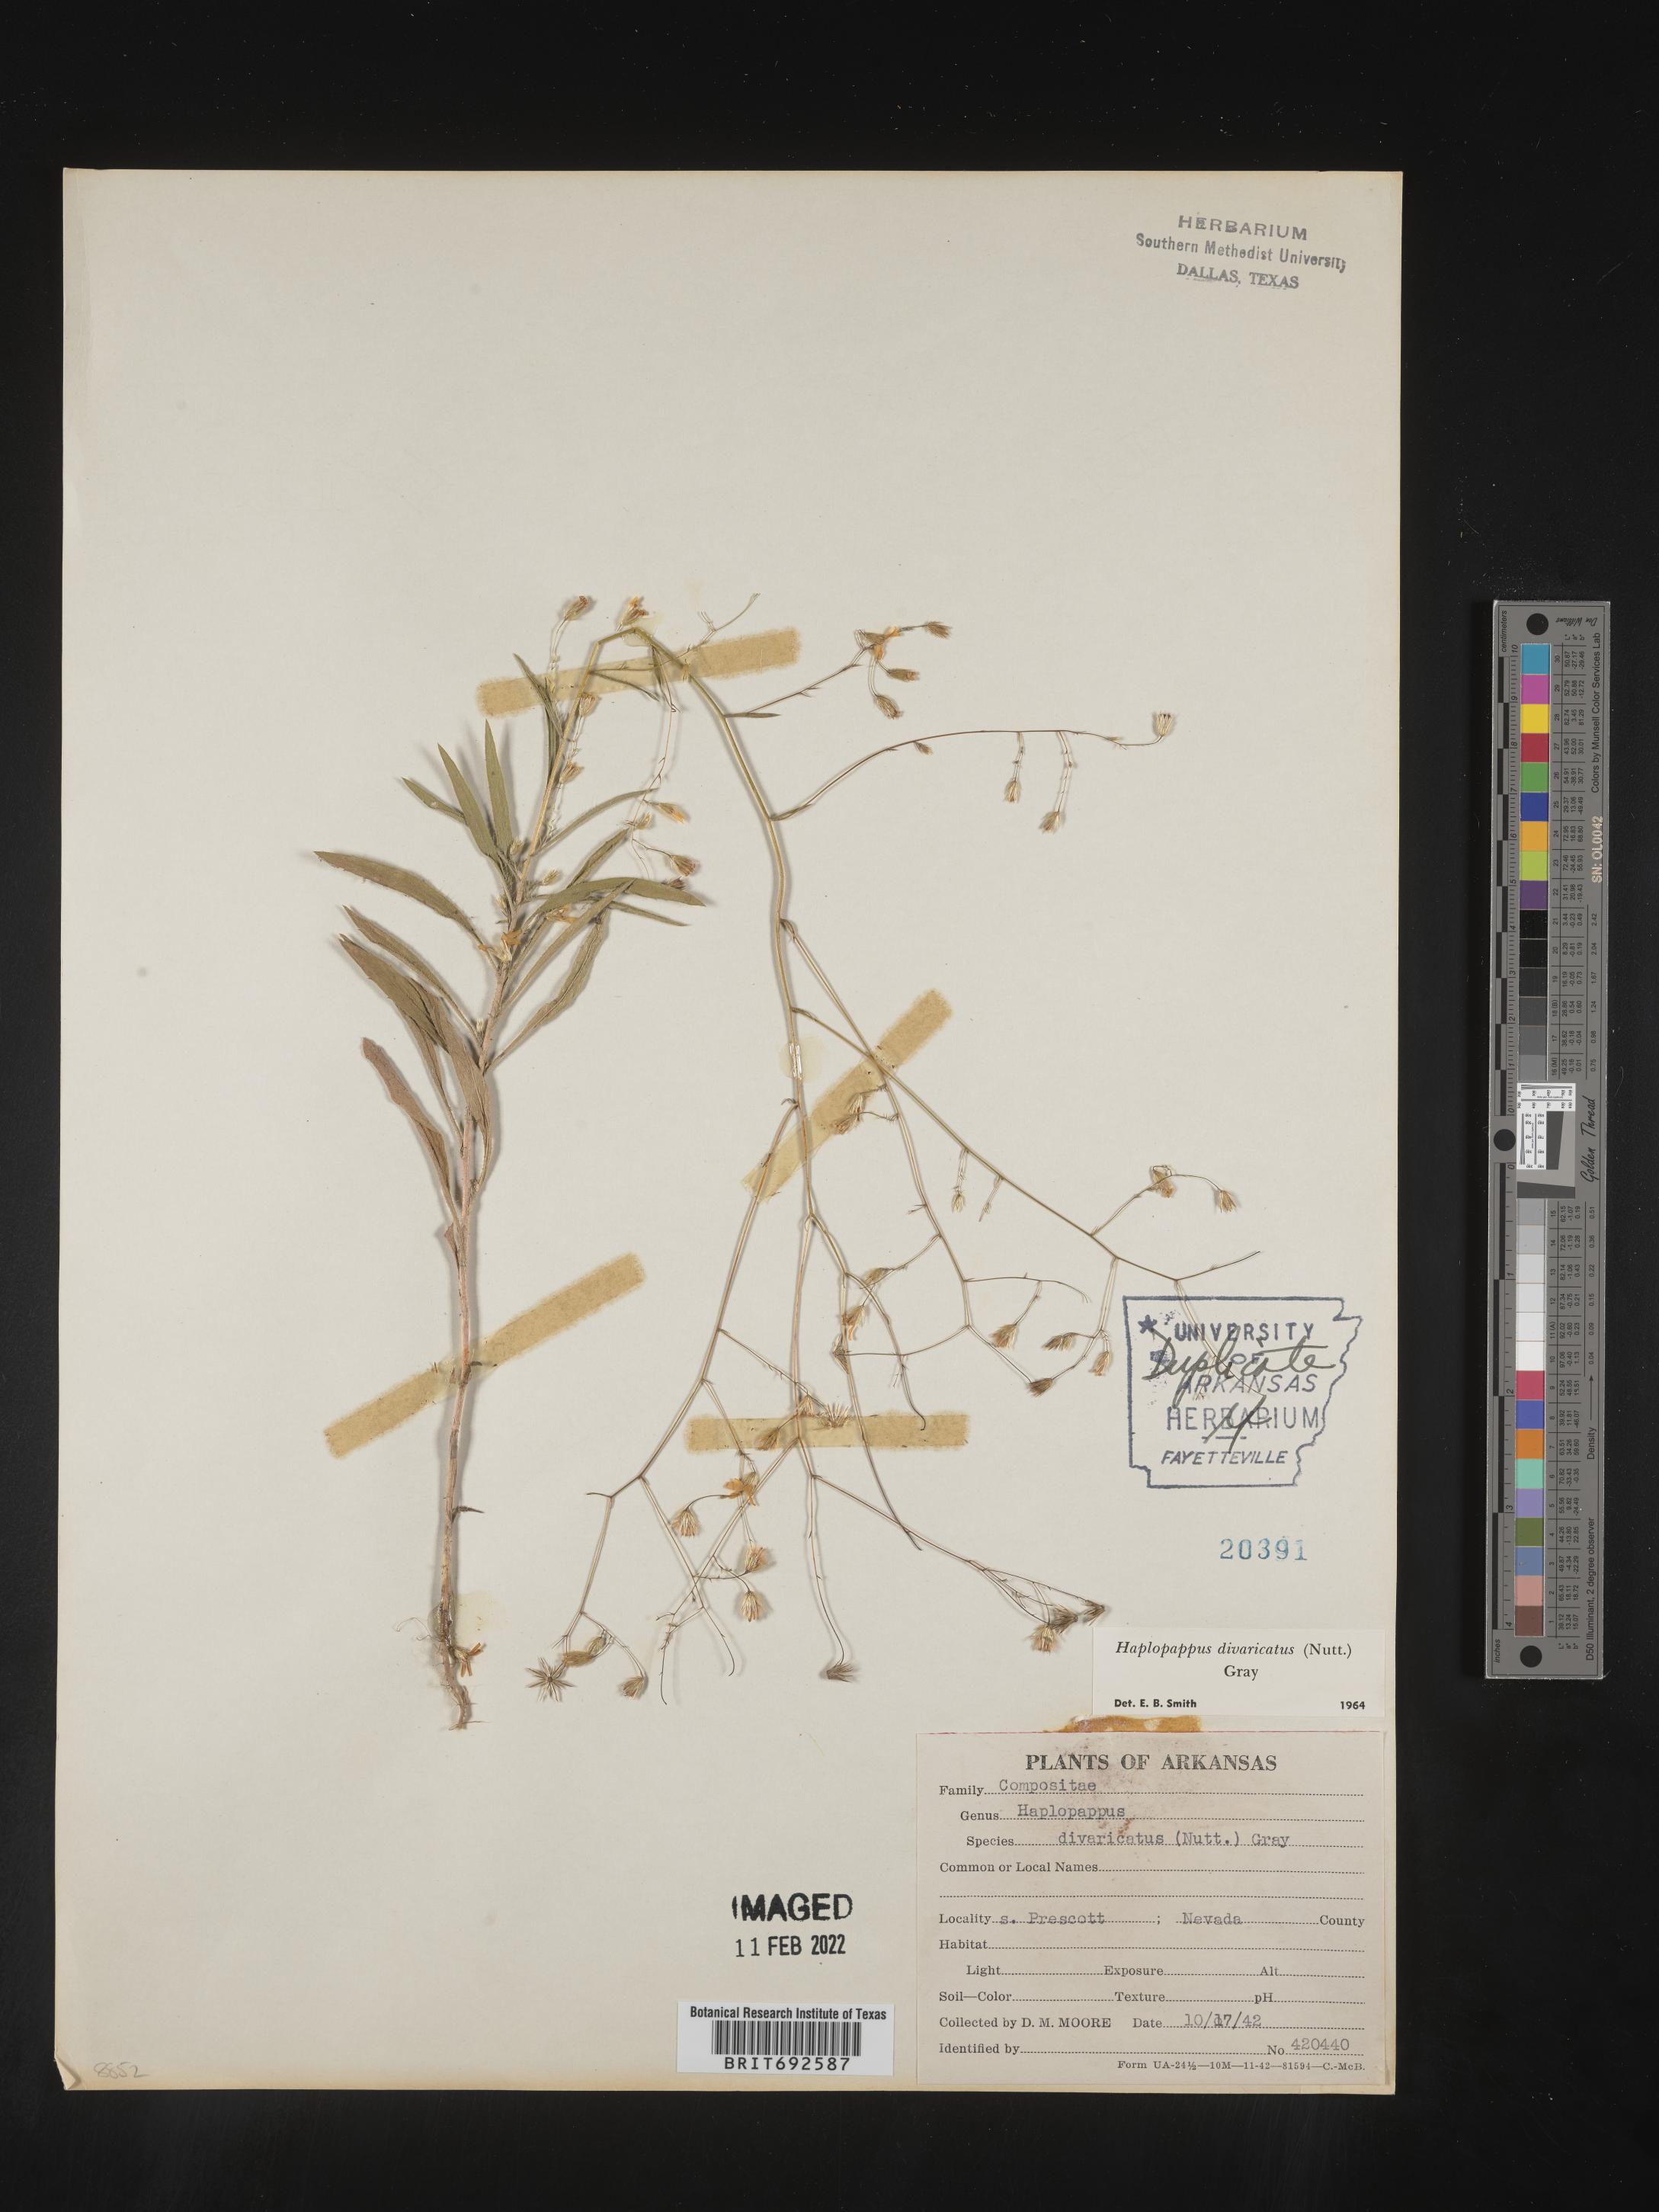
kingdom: Plantae
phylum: Tracheophyta
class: Magnoliopsida
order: Asterales
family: Asteraceae
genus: Croptilon
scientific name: Croptilon divaricatum
